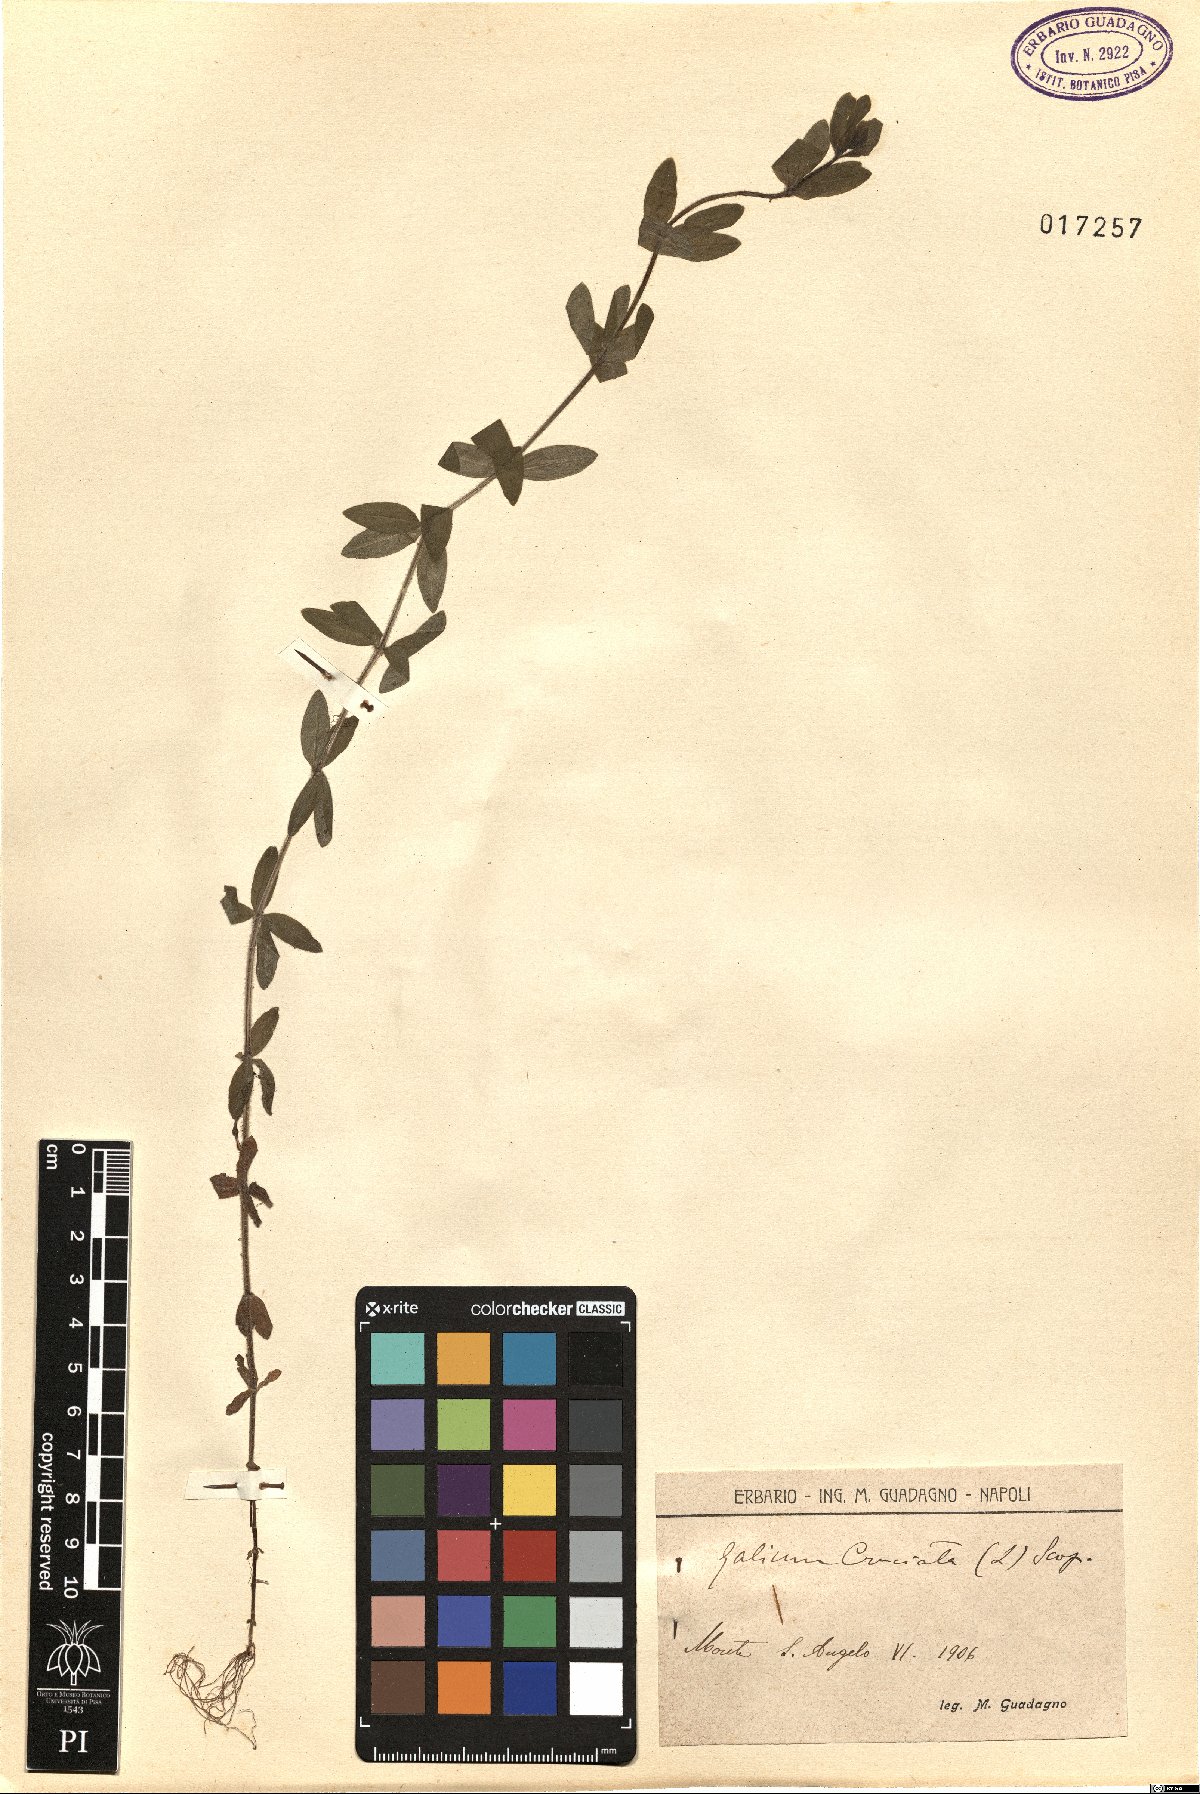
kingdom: Plantae
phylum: Tracheophyta
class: Magnoliopsida
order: Gentianales
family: Rubiaceae
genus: Cruciata
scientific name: Cruciata laevipes
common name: Crosswort
